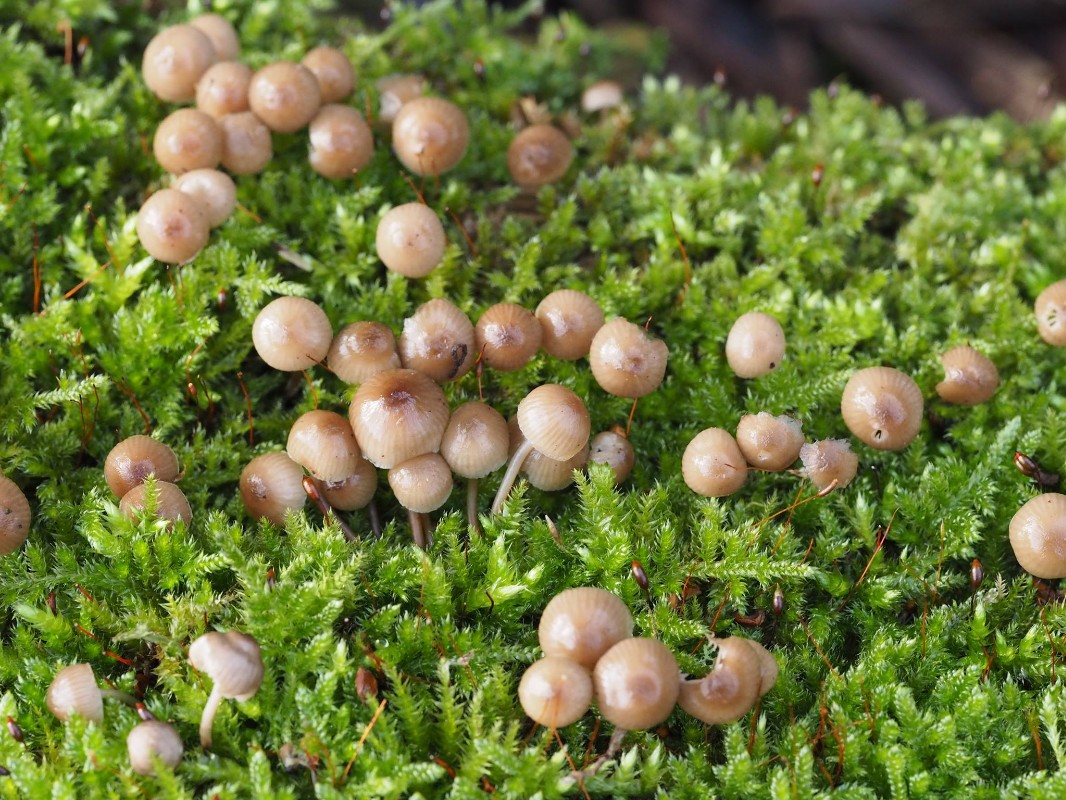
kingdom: Fungi
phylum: Basidiomycota
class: Agaricomycetes
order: Agaricales
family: Mycenaceae
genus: Mycena
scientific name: Mycena tintinnabulum
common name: vinter-huesvamp
